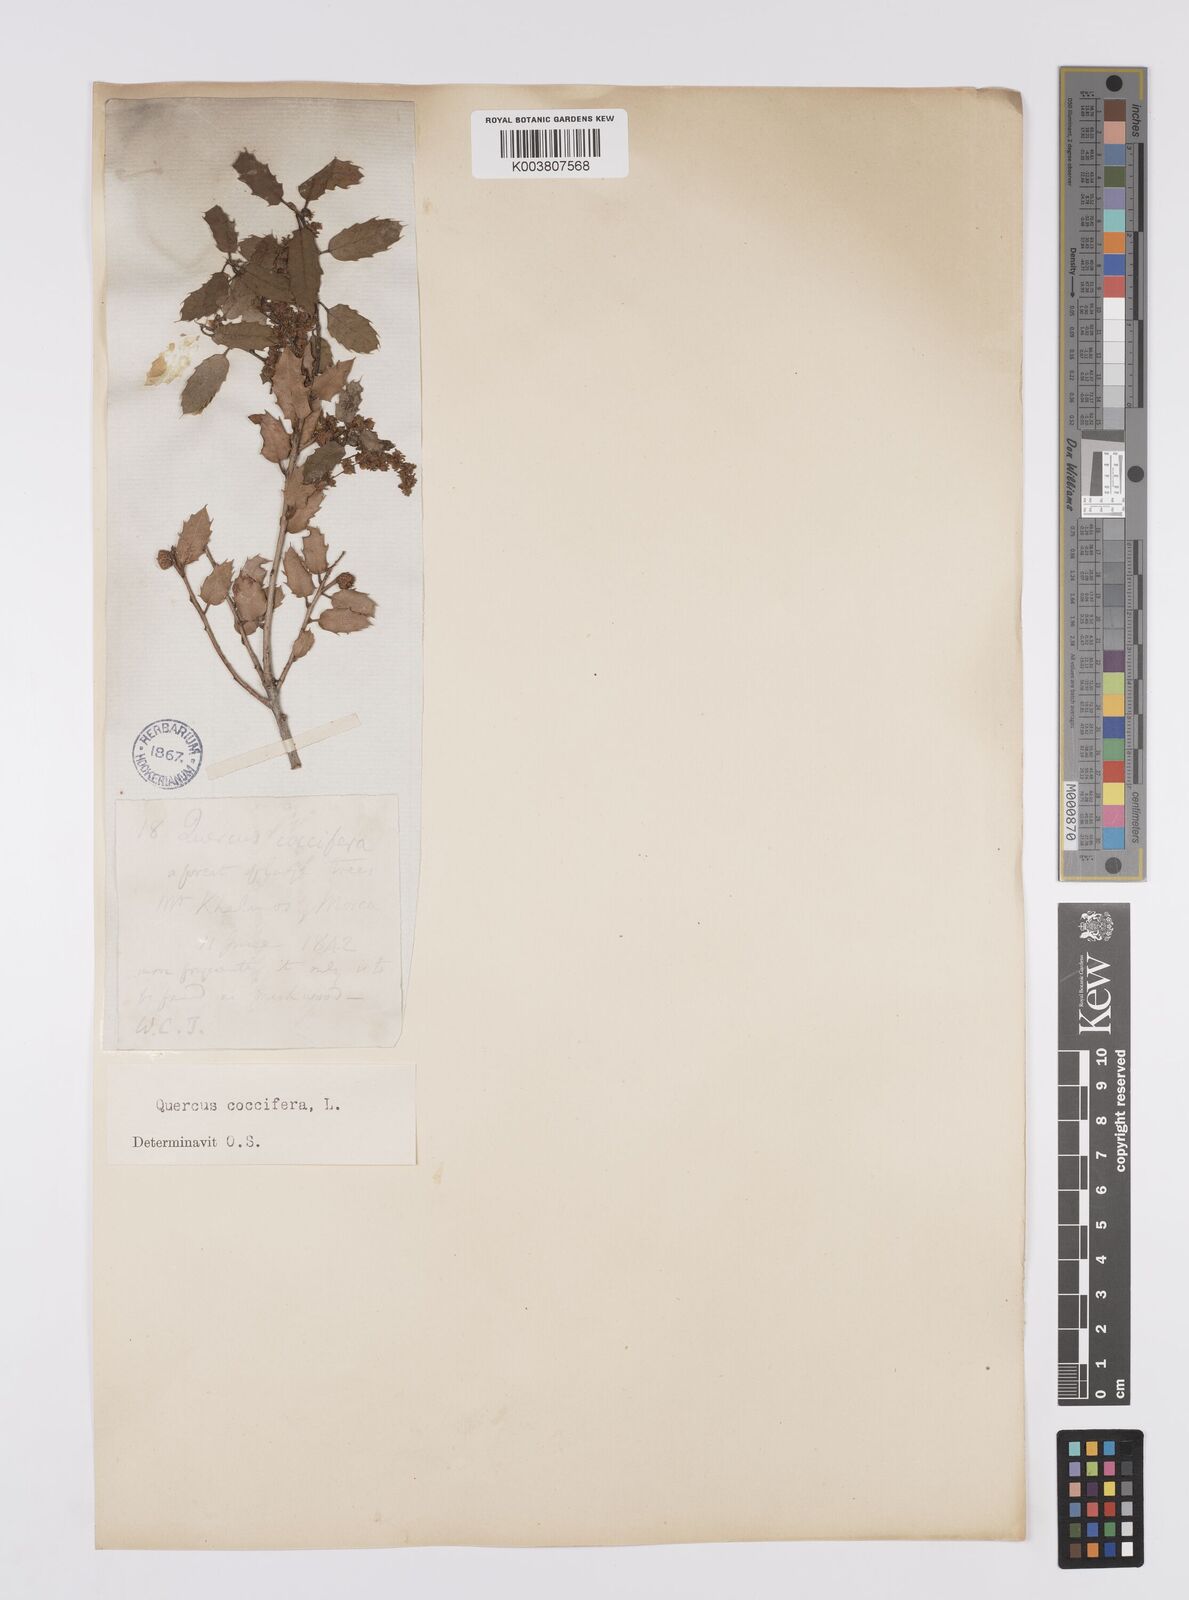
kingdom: Plantae
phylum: Tracheophyta
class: Magnoliopsida
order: Fagales
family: Fagaceae
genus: Quercus
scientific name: Quercus coccifera
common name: Kermes oak
